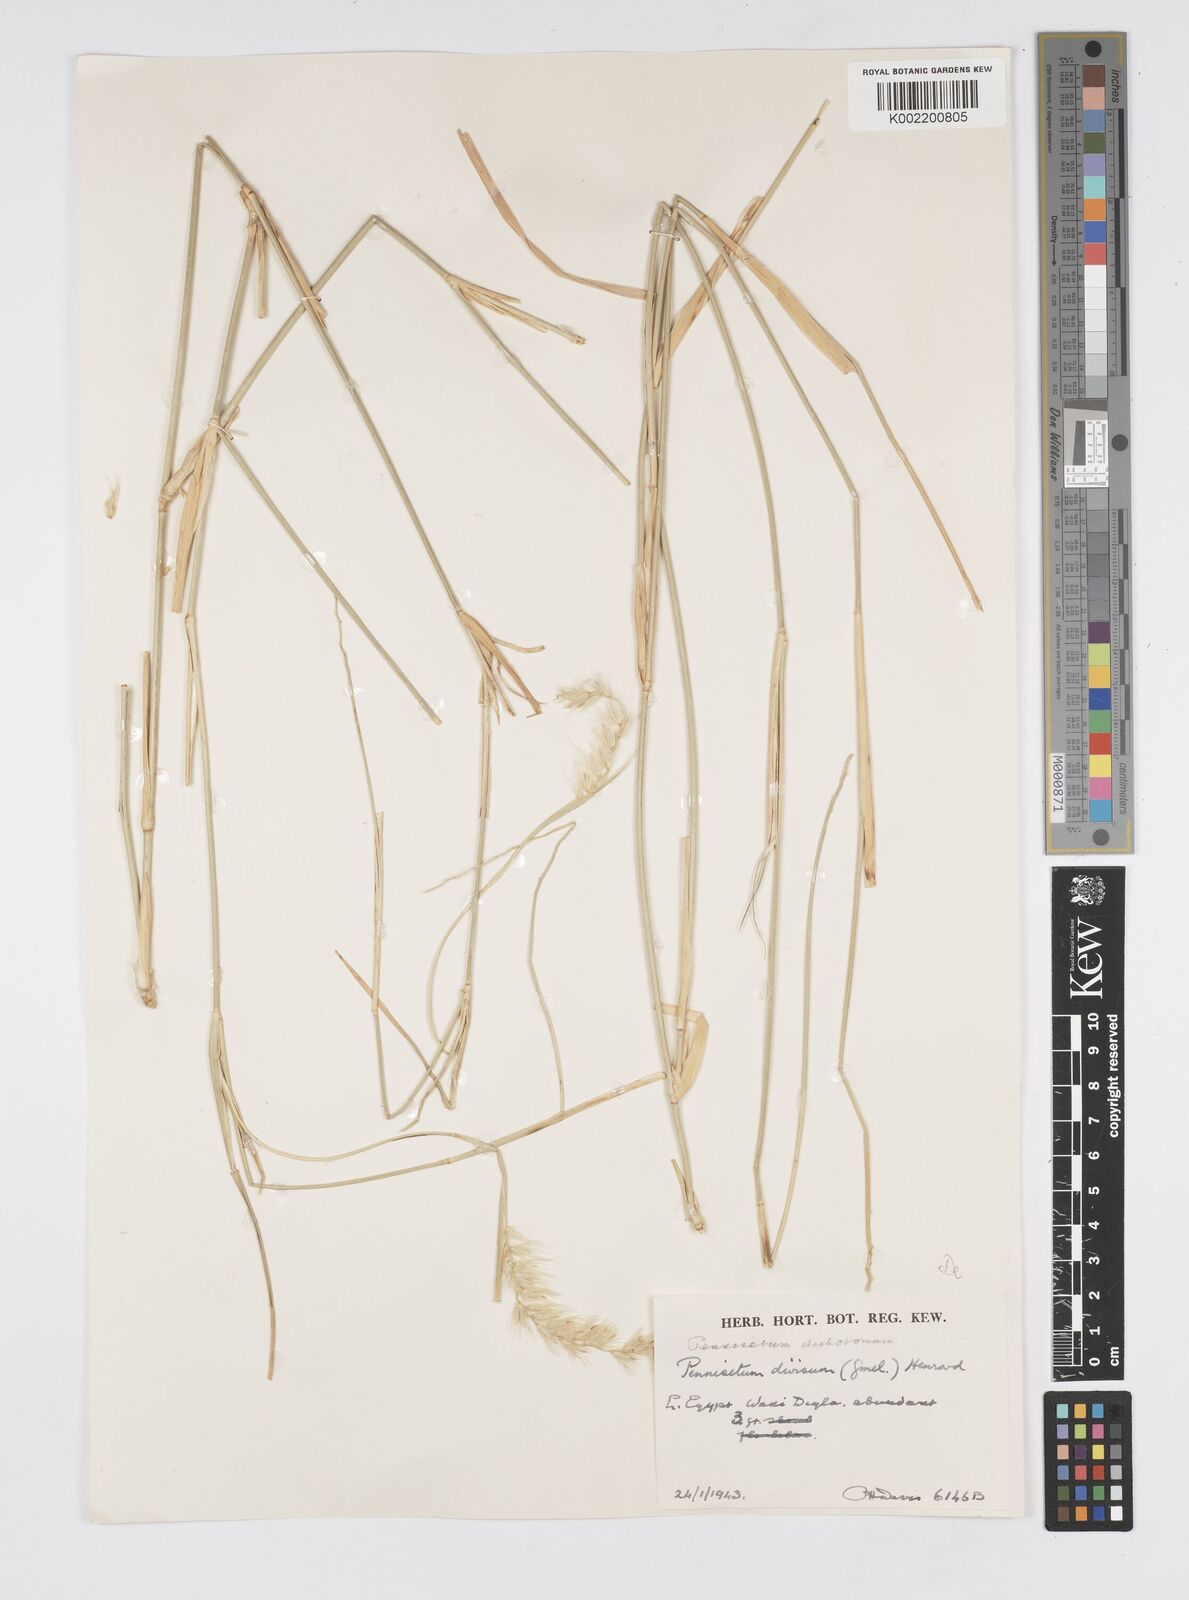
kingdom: Plantae
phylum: Tracheophyta
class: Liliopsida
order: Poales
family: Poaceae
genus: Cenchrus
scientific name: Cenchrus divisus
